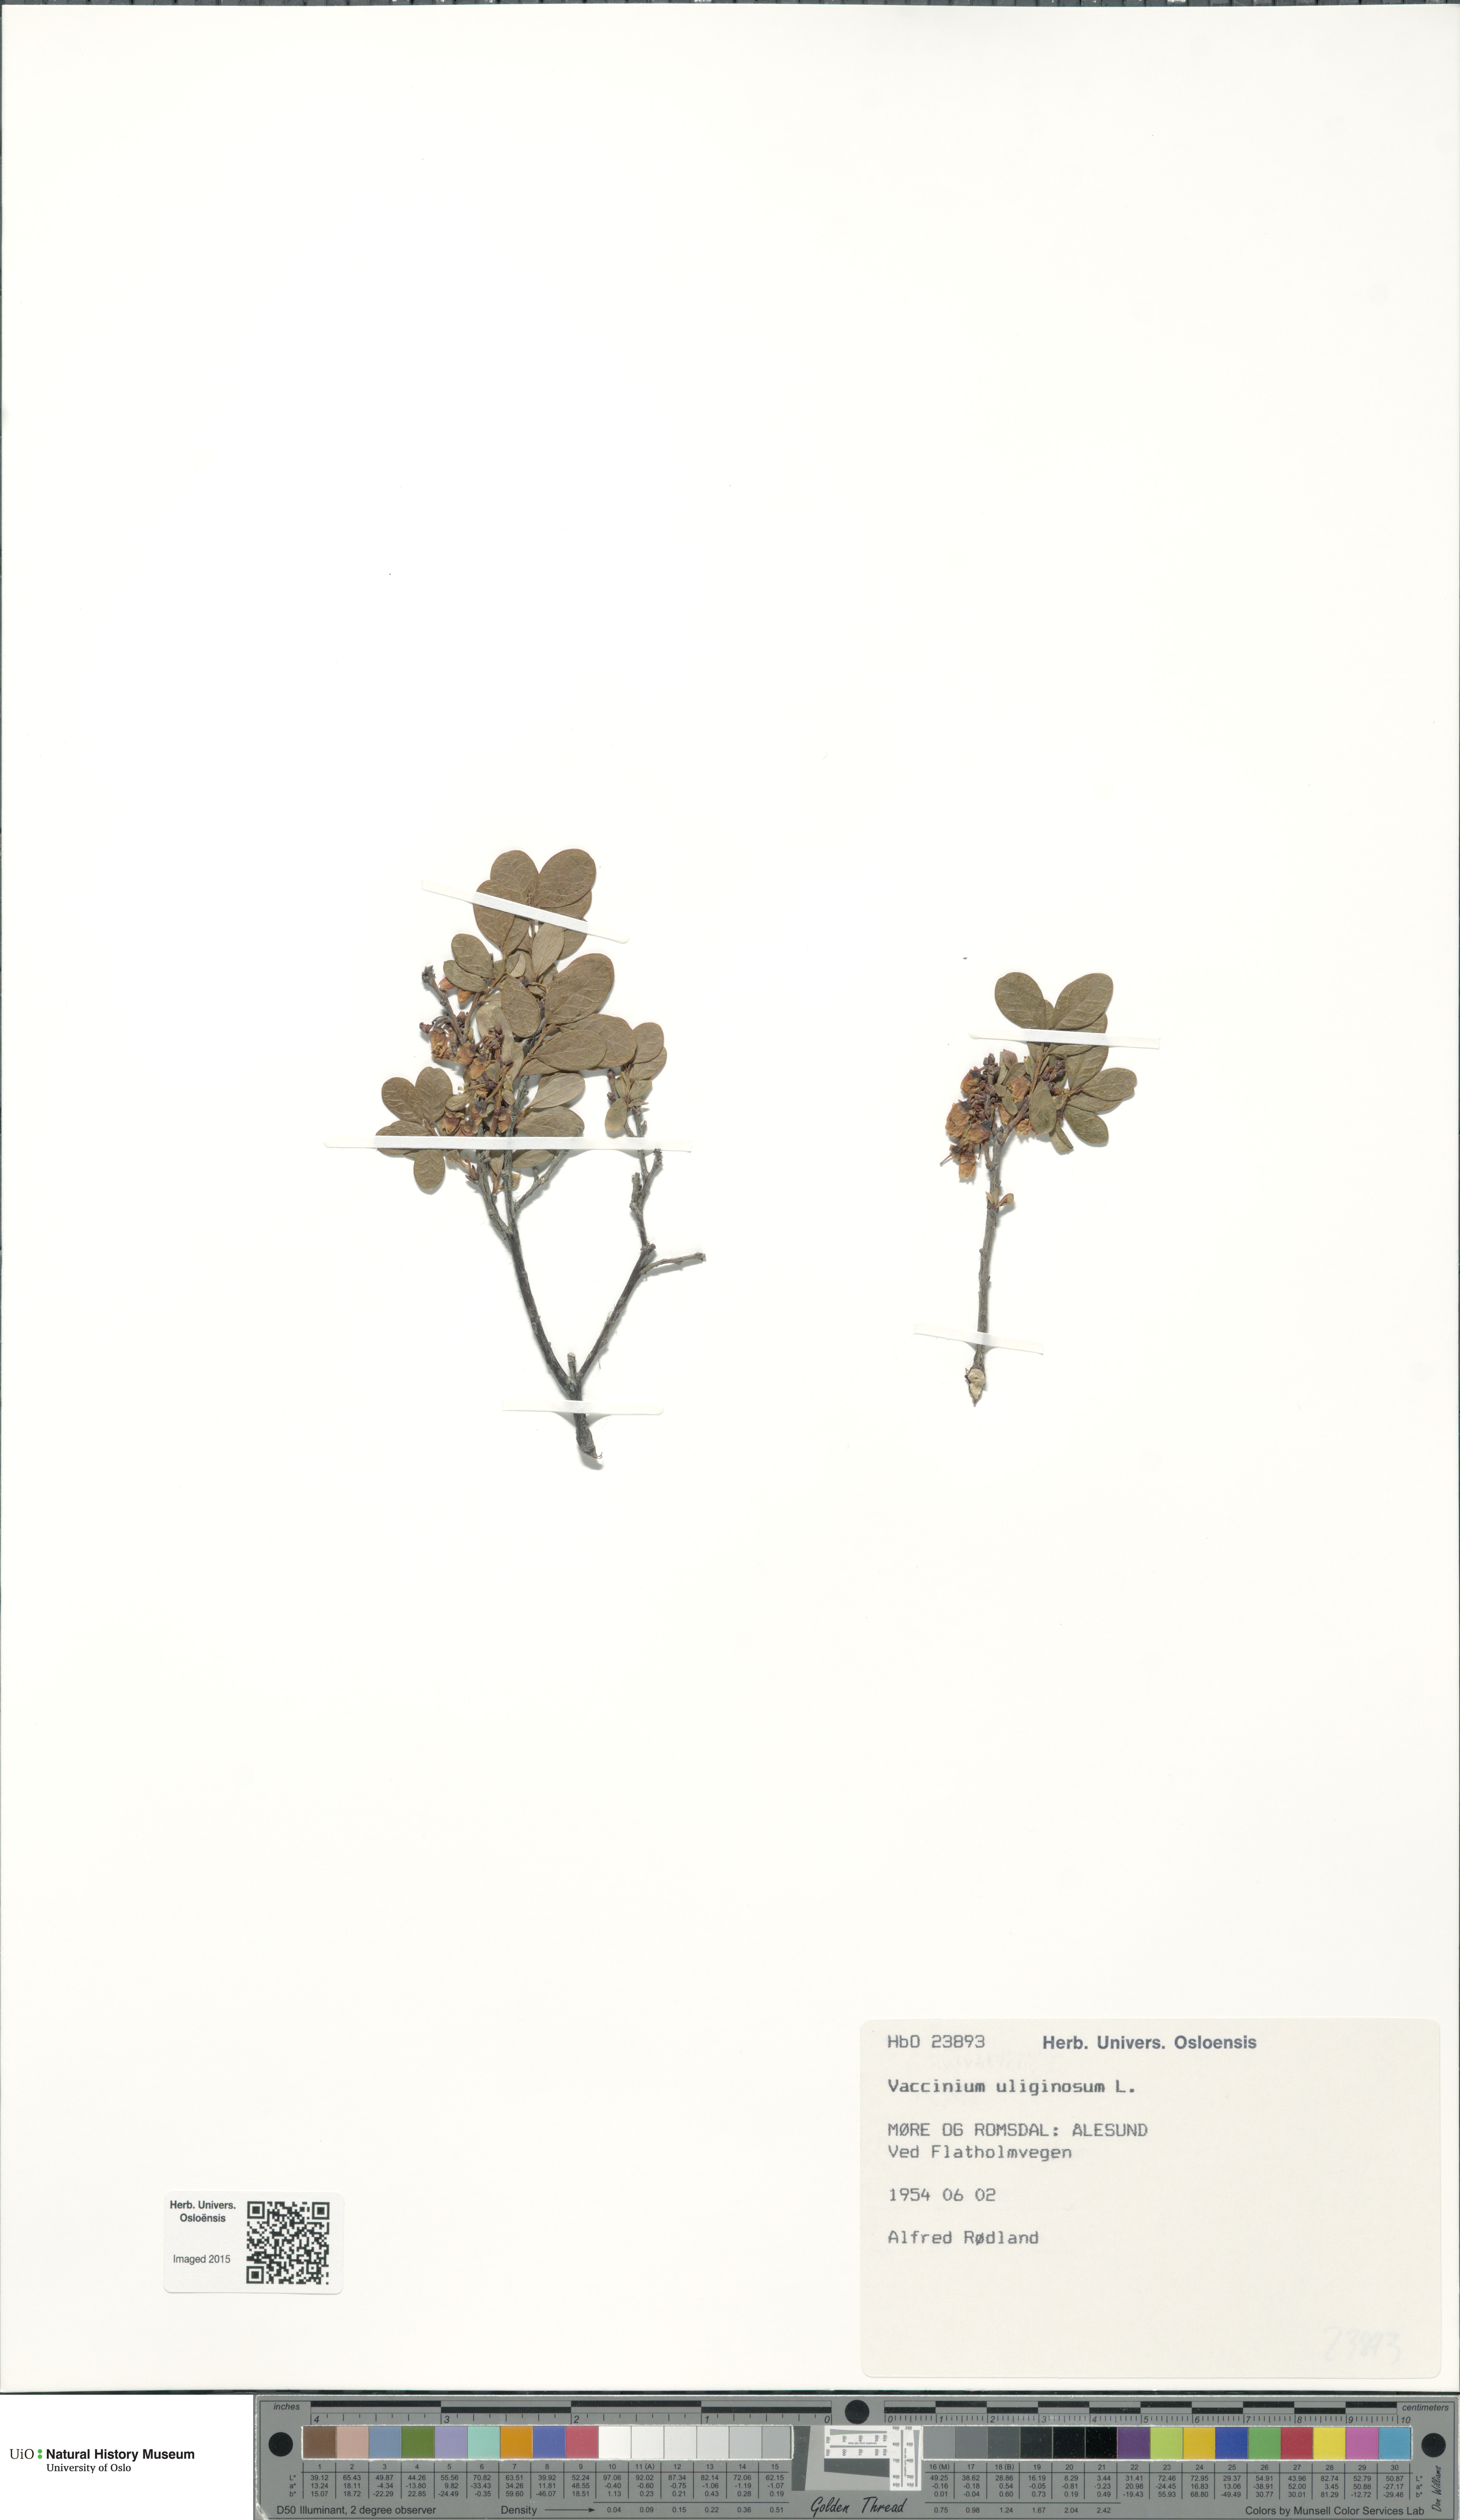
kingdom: Plantae
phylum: Tracheophyta
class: Magnoliopsida
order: Ericales
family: Ericaceae
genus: Vaccinium
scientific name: Vaccinium uliginosum
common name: Bog bilberry
